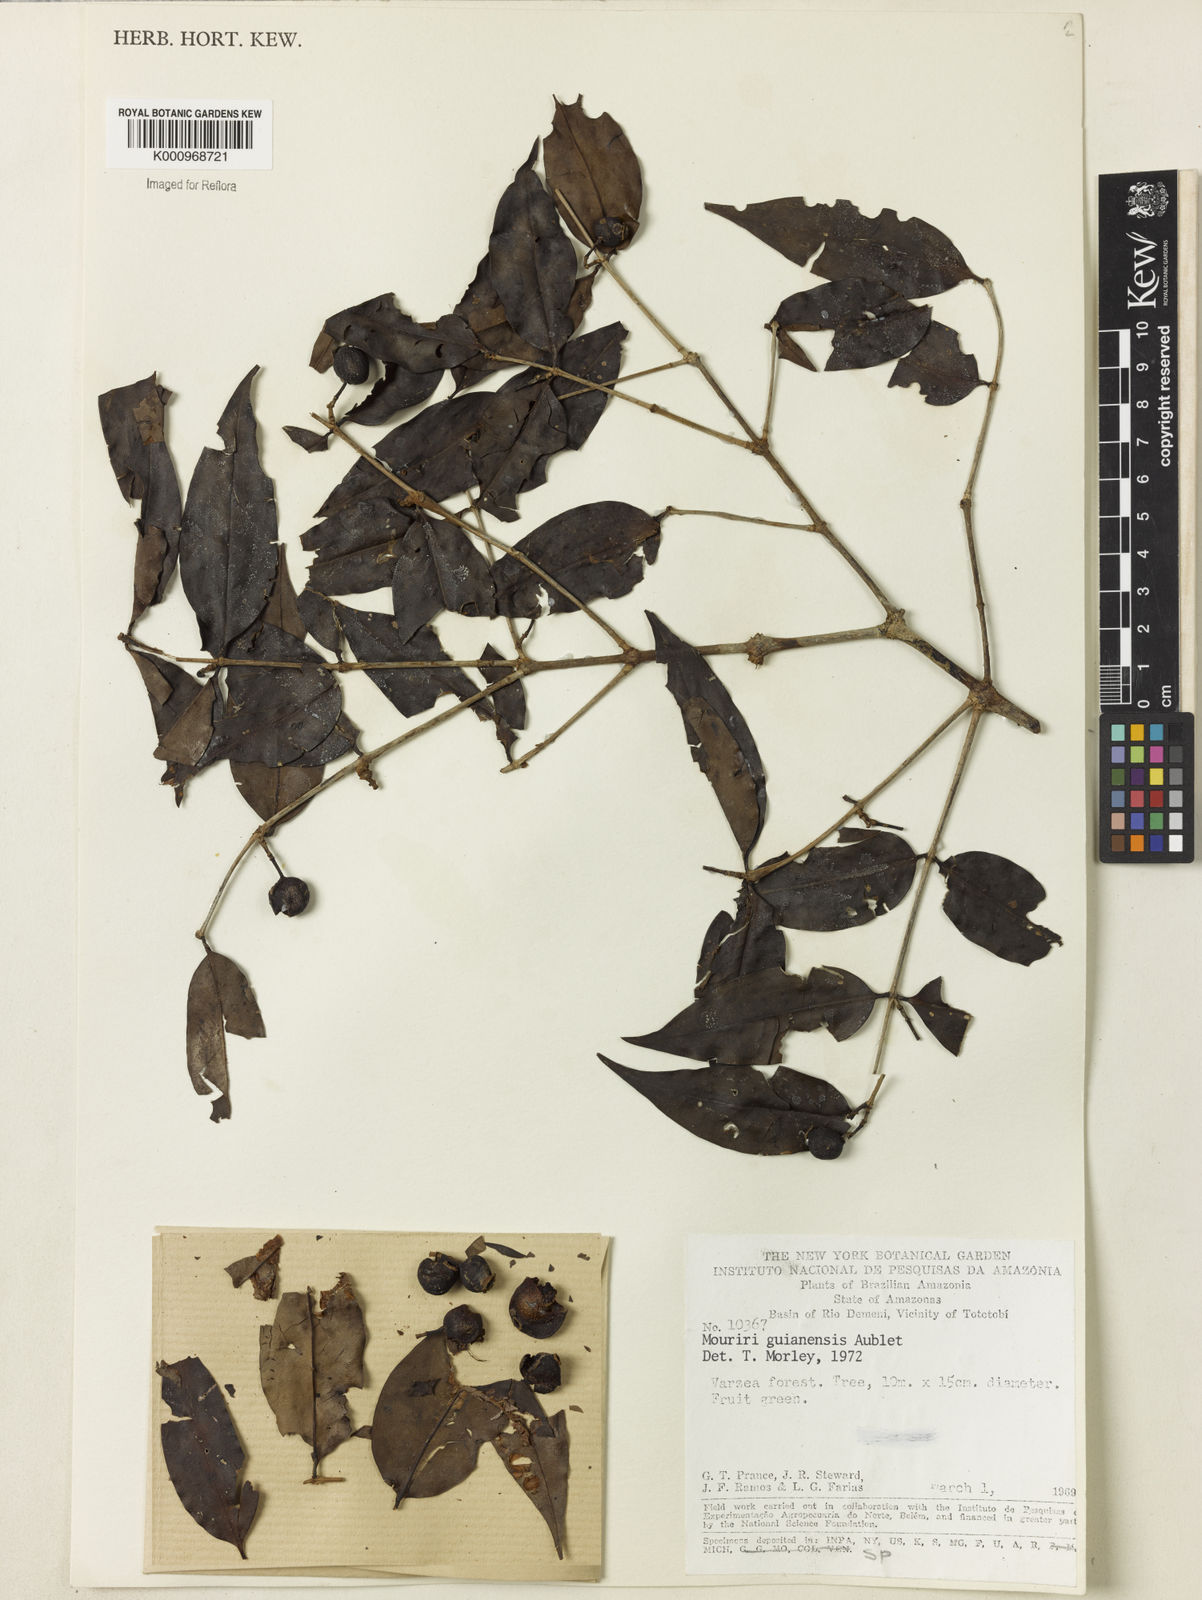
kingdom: Plantae
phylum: Tracheophyta
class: Magnoliopsida
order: Myrtales
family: Melastomataceae
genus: Mouriri
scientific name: Mouriri guianensis
